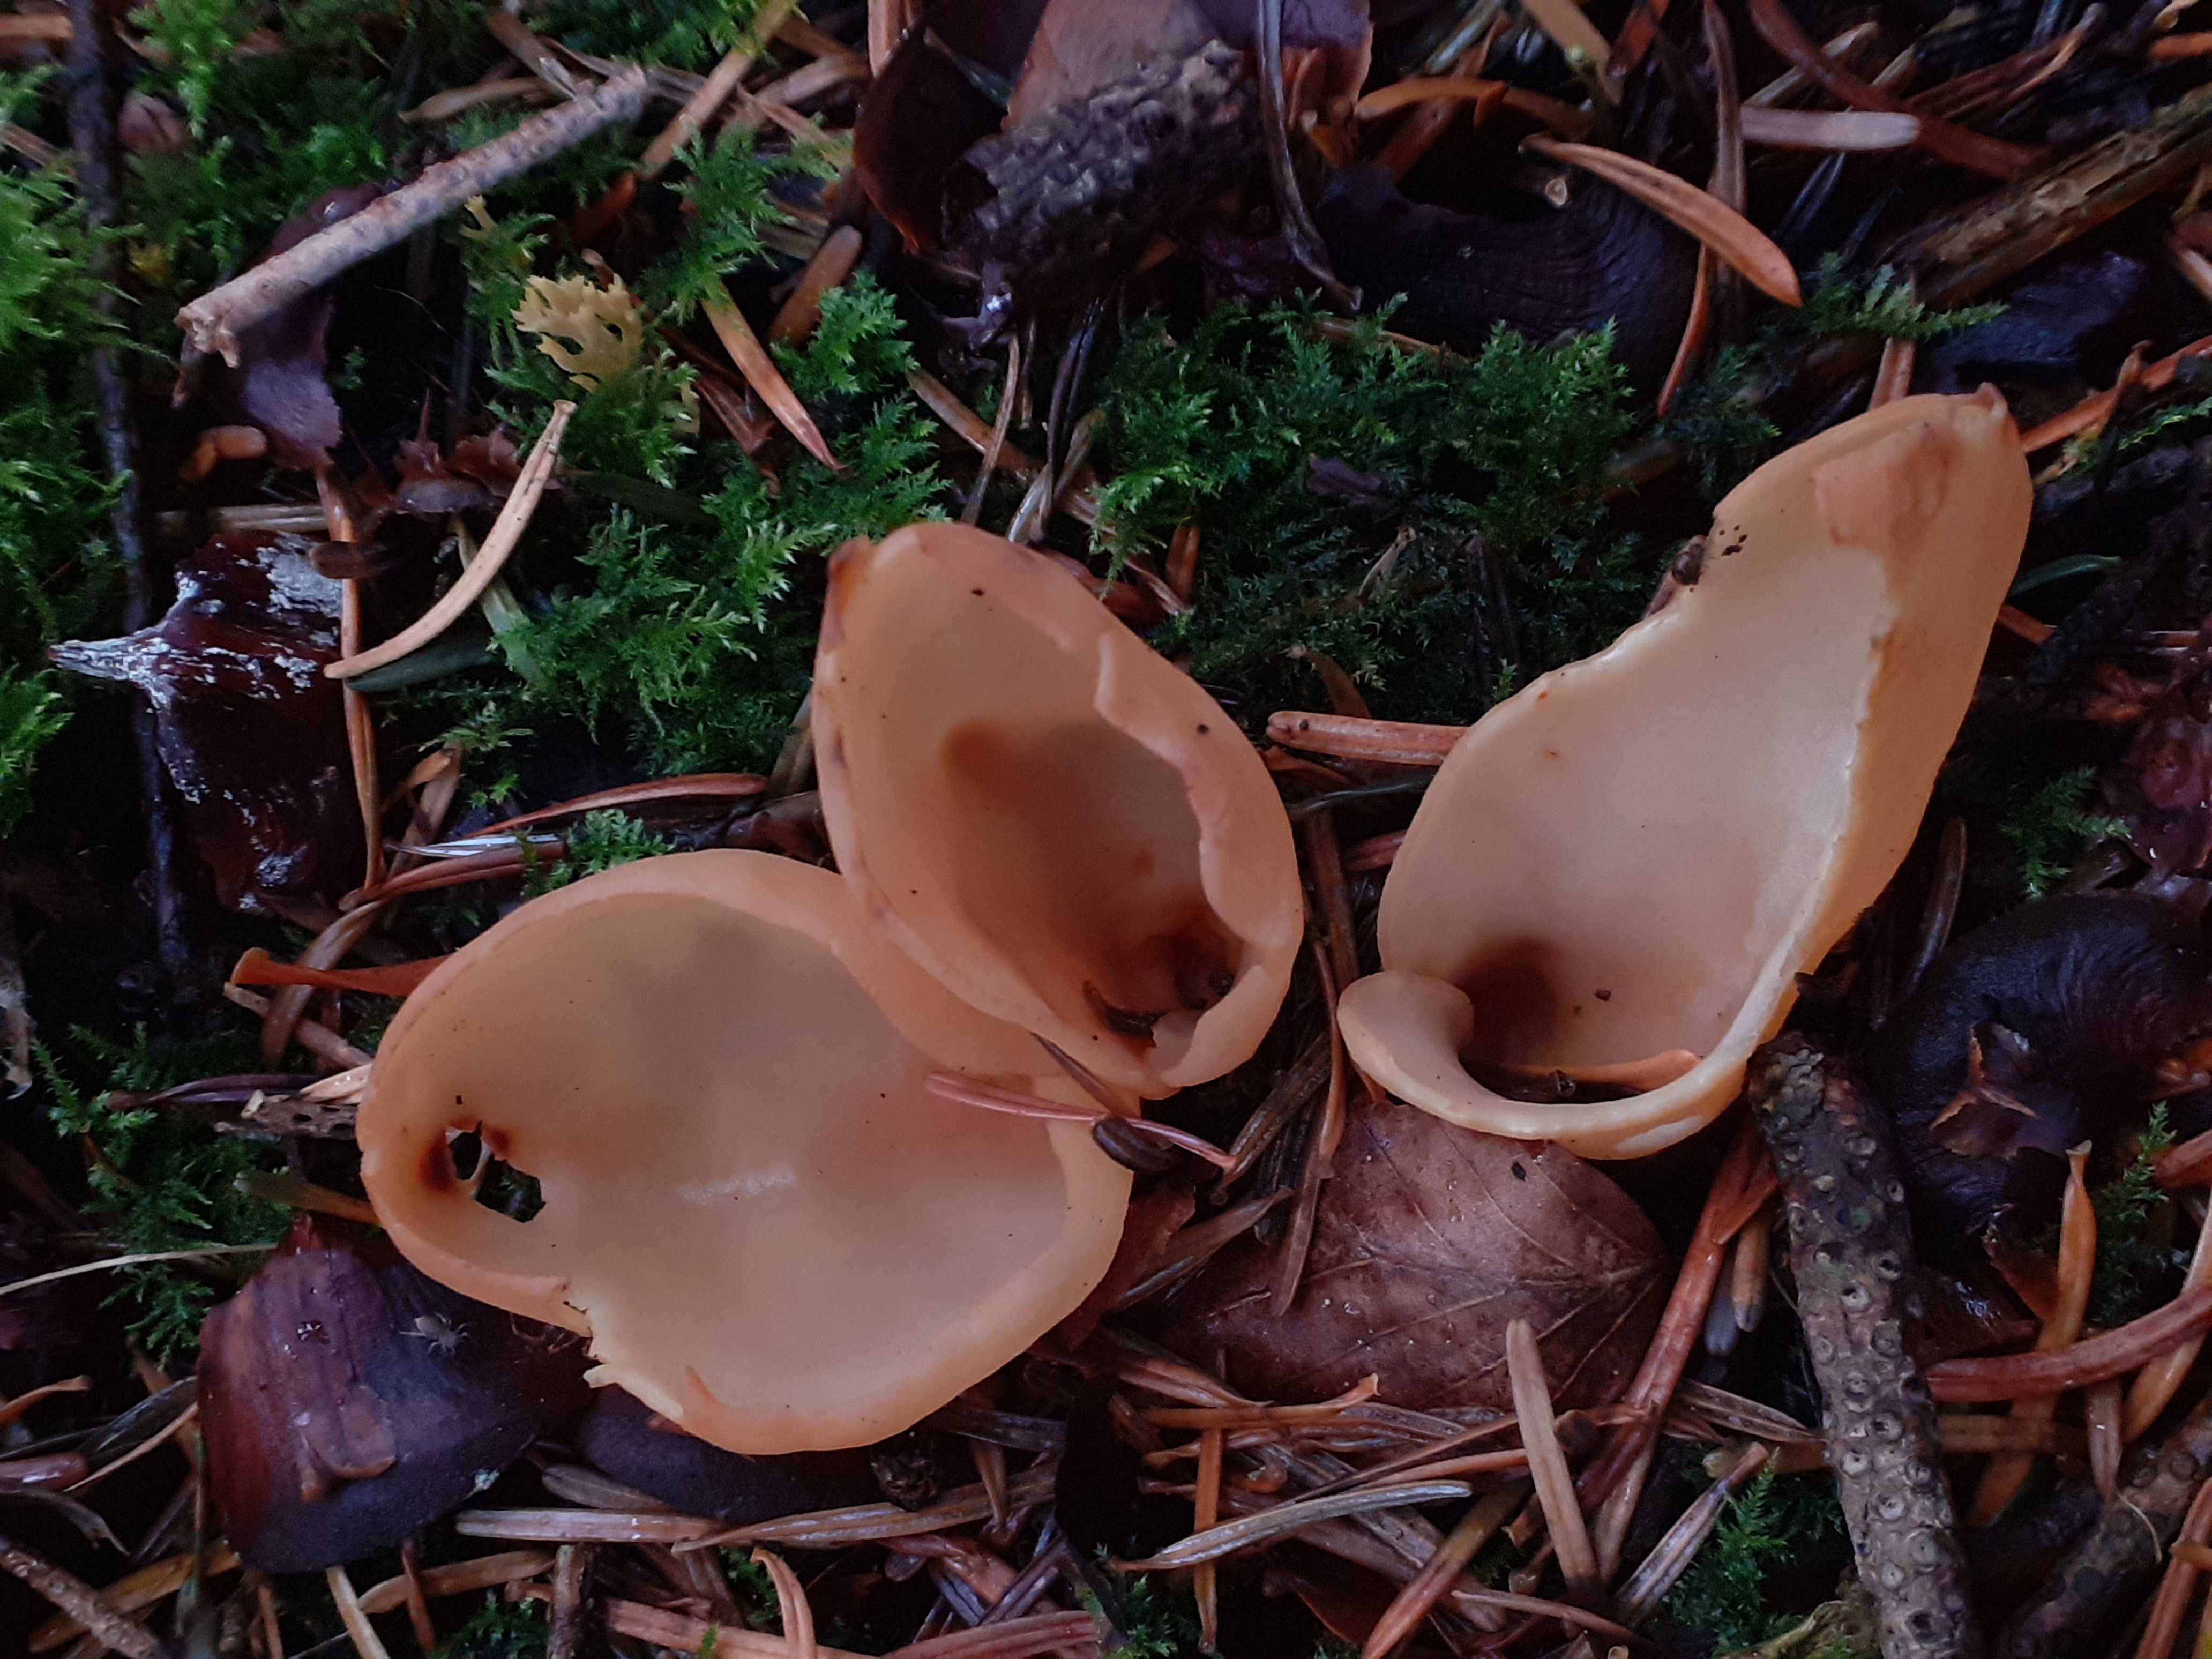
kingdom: Fungi
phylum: Ascomycota
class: Pezizomycetes
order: Pezizales
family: Otideaceae
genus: Otidea
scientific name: Otidea onotica
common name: æsel-ørebæger
